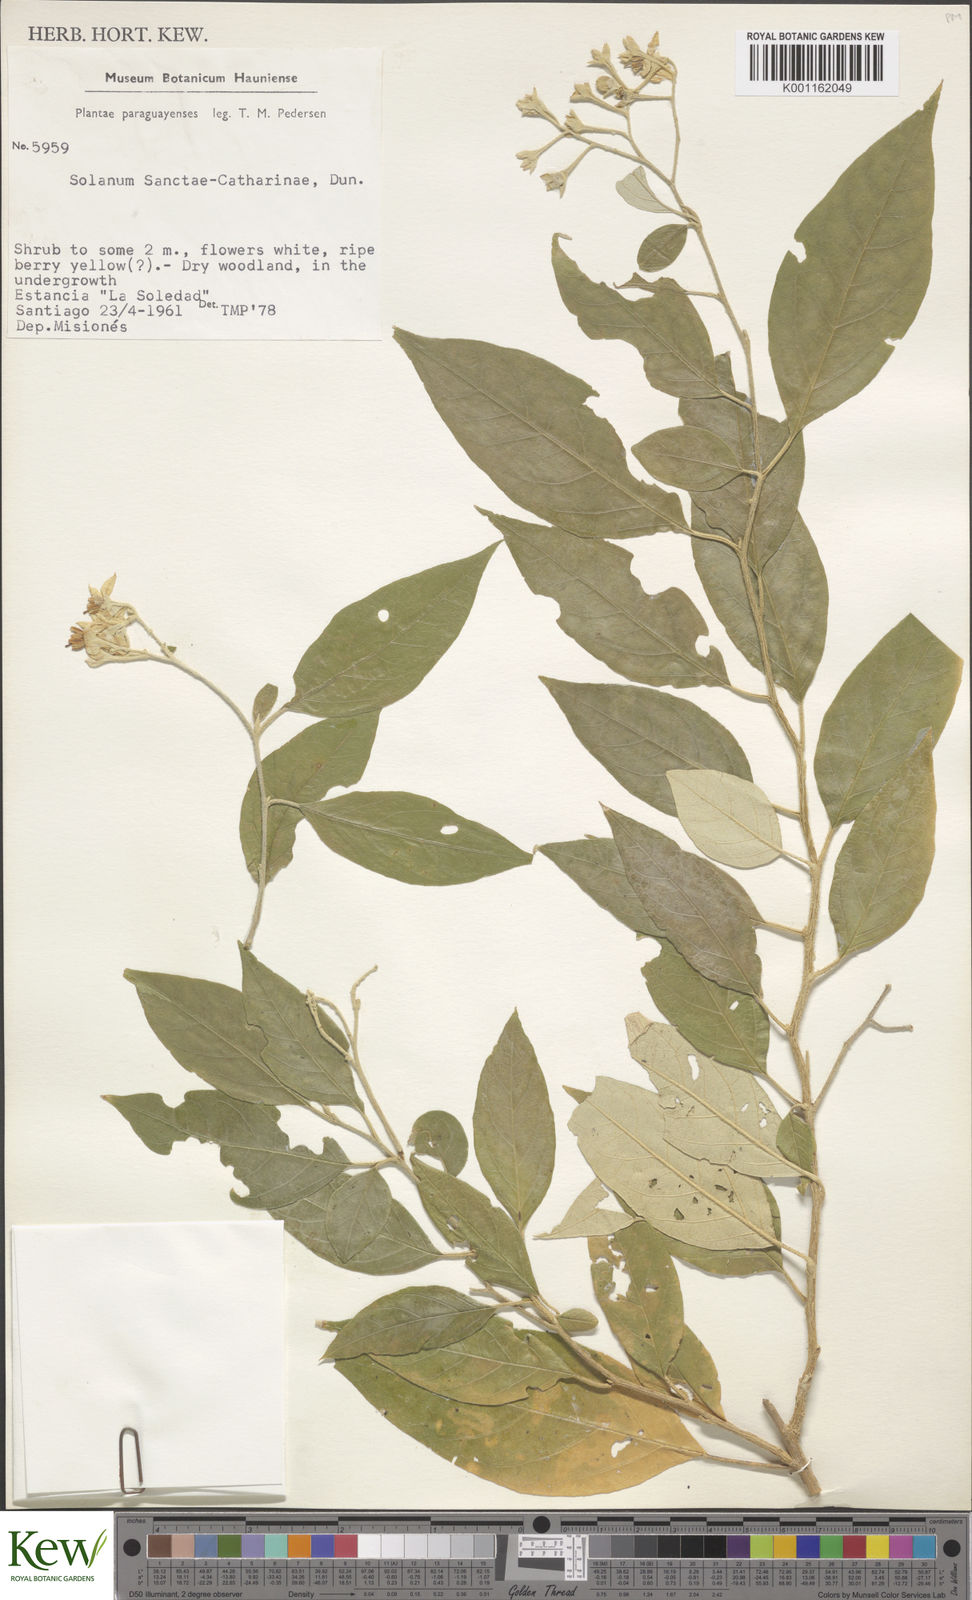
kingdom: Plantae
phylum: Tracheophyta
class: Magnoliopsida
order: Solanales
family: Solanaceae
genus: Solanum
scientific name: Solanum sanctae-catharinae
